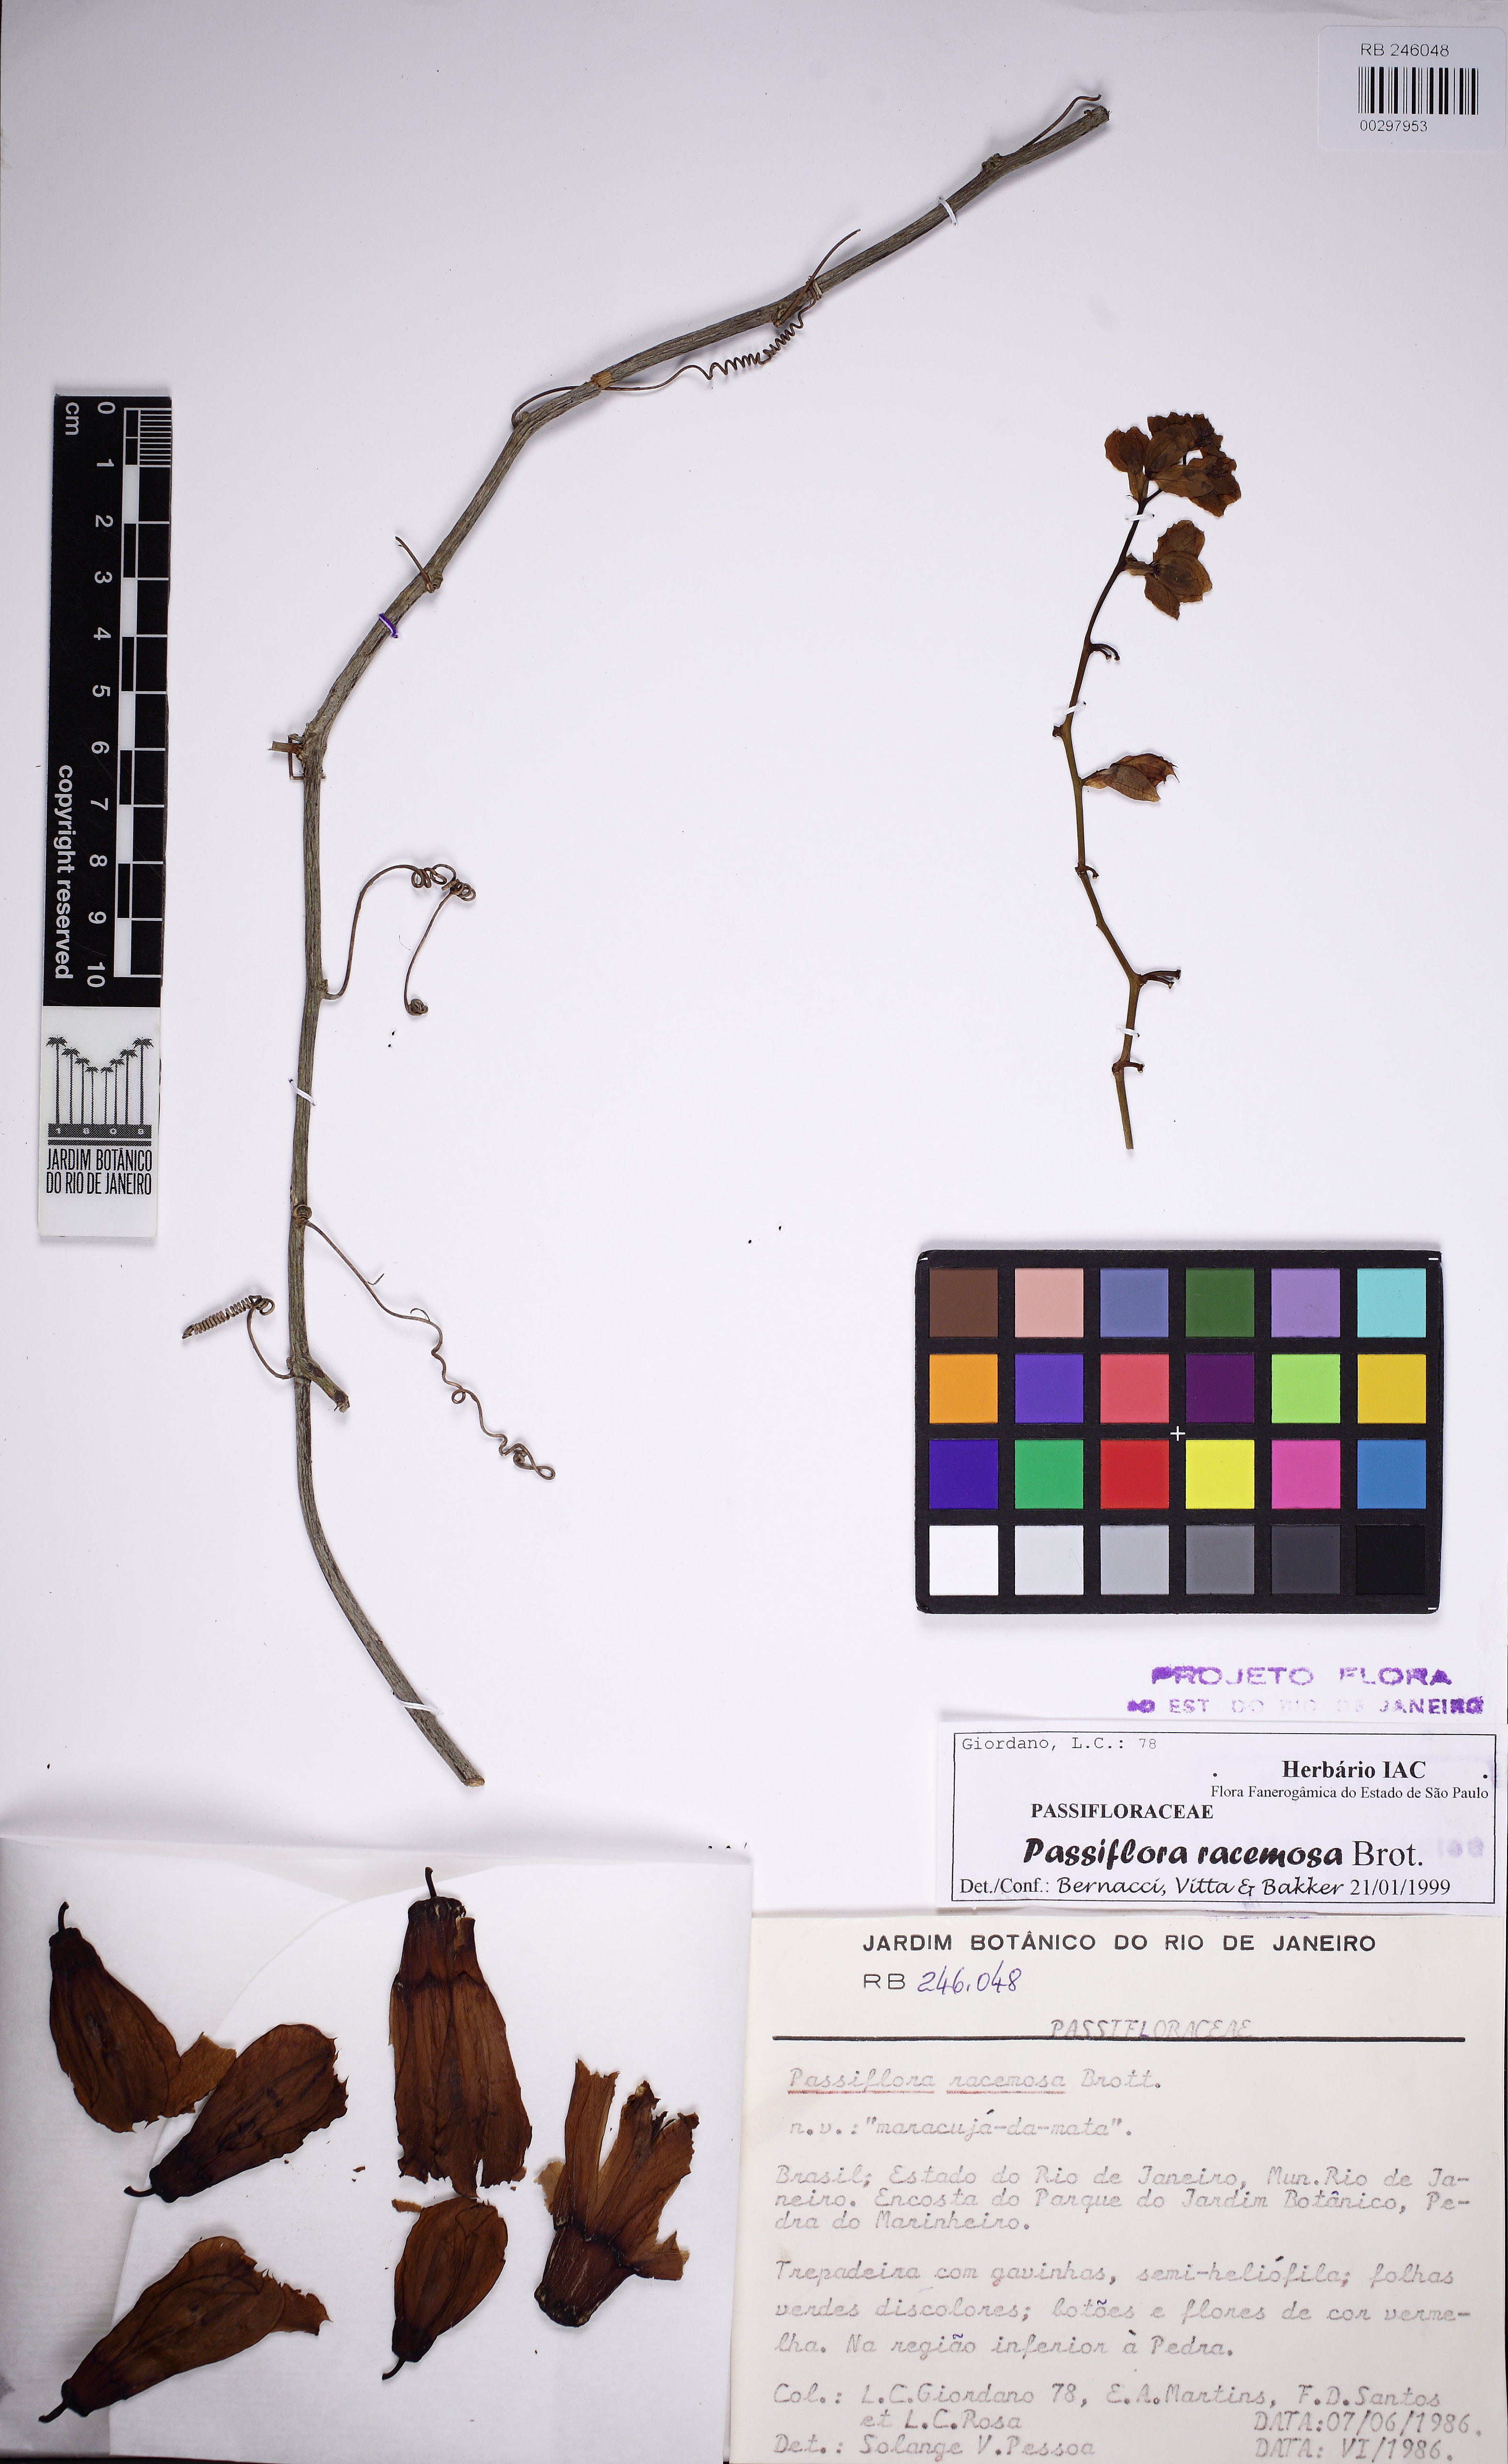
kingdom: Plantae
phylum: Tracheophyta
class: Magnoliopsida
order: Malpighiales
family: Passifloraceae
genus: Passiflora
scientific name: Passiflora racemosa
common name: Red passionflower
